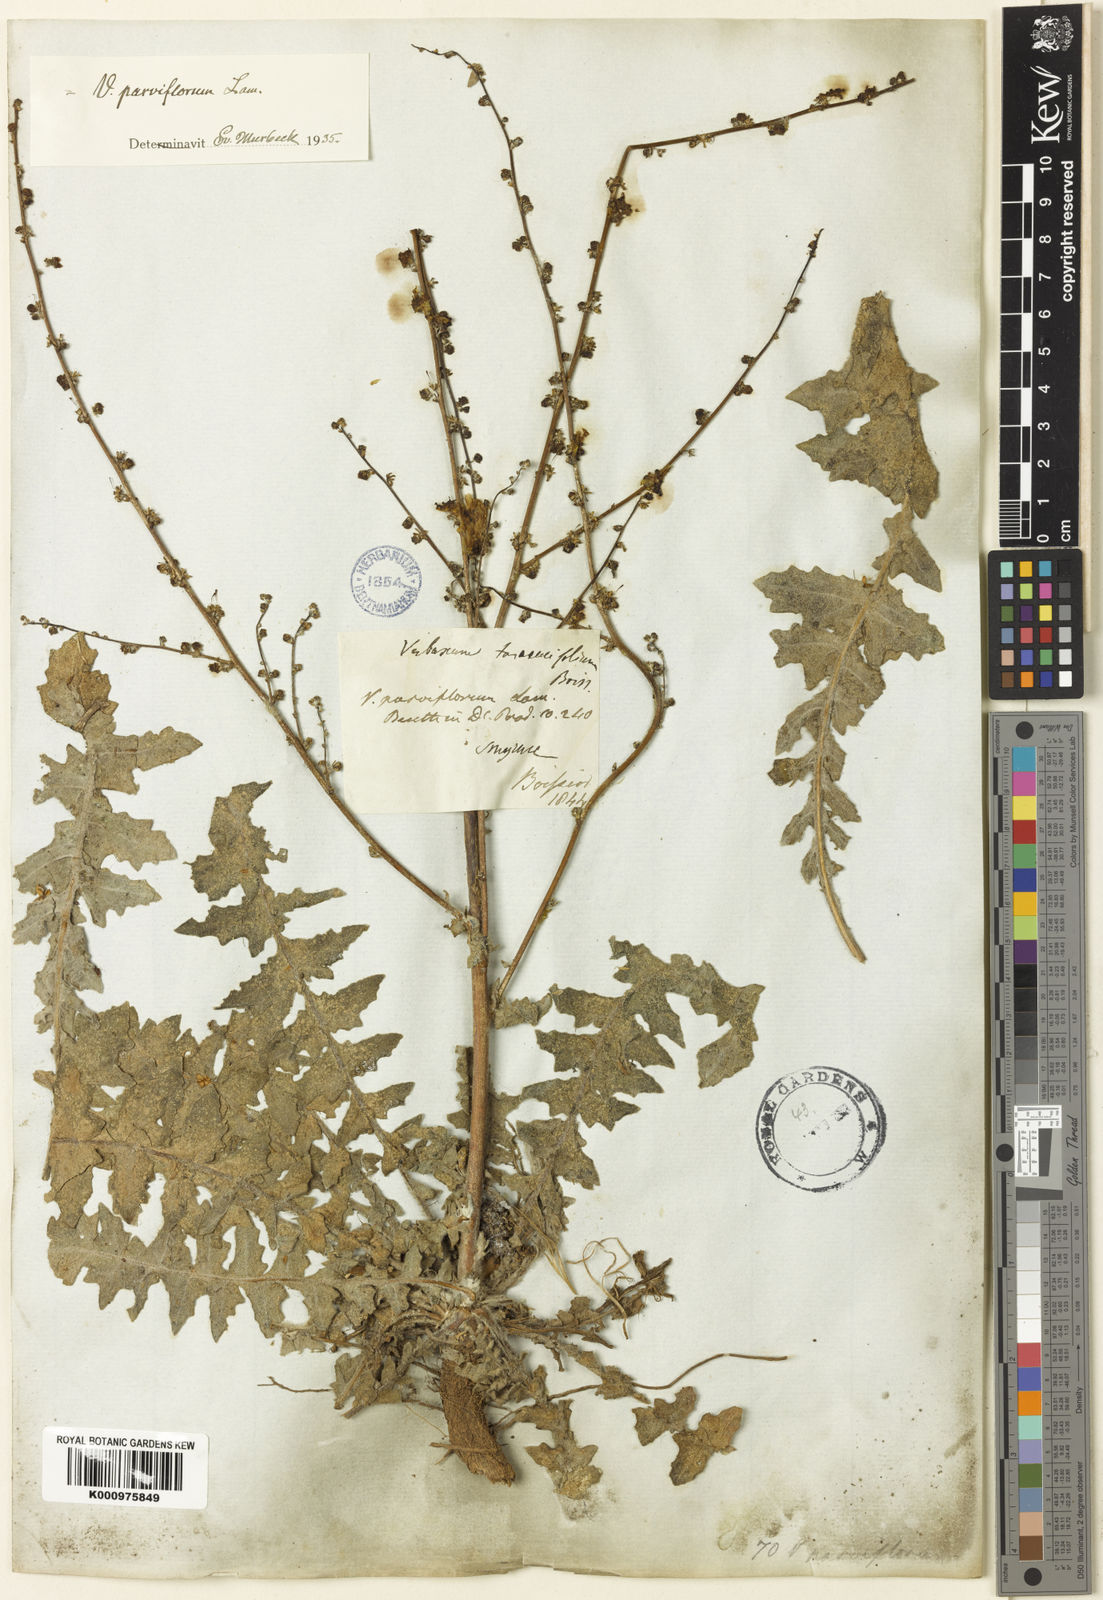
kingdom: Plantae
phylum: Tracheophyta
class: Magnoliopsida
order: Lamiales
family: Scrophulariaceae
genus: Verbascum
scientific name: Verbascum parviflorum
